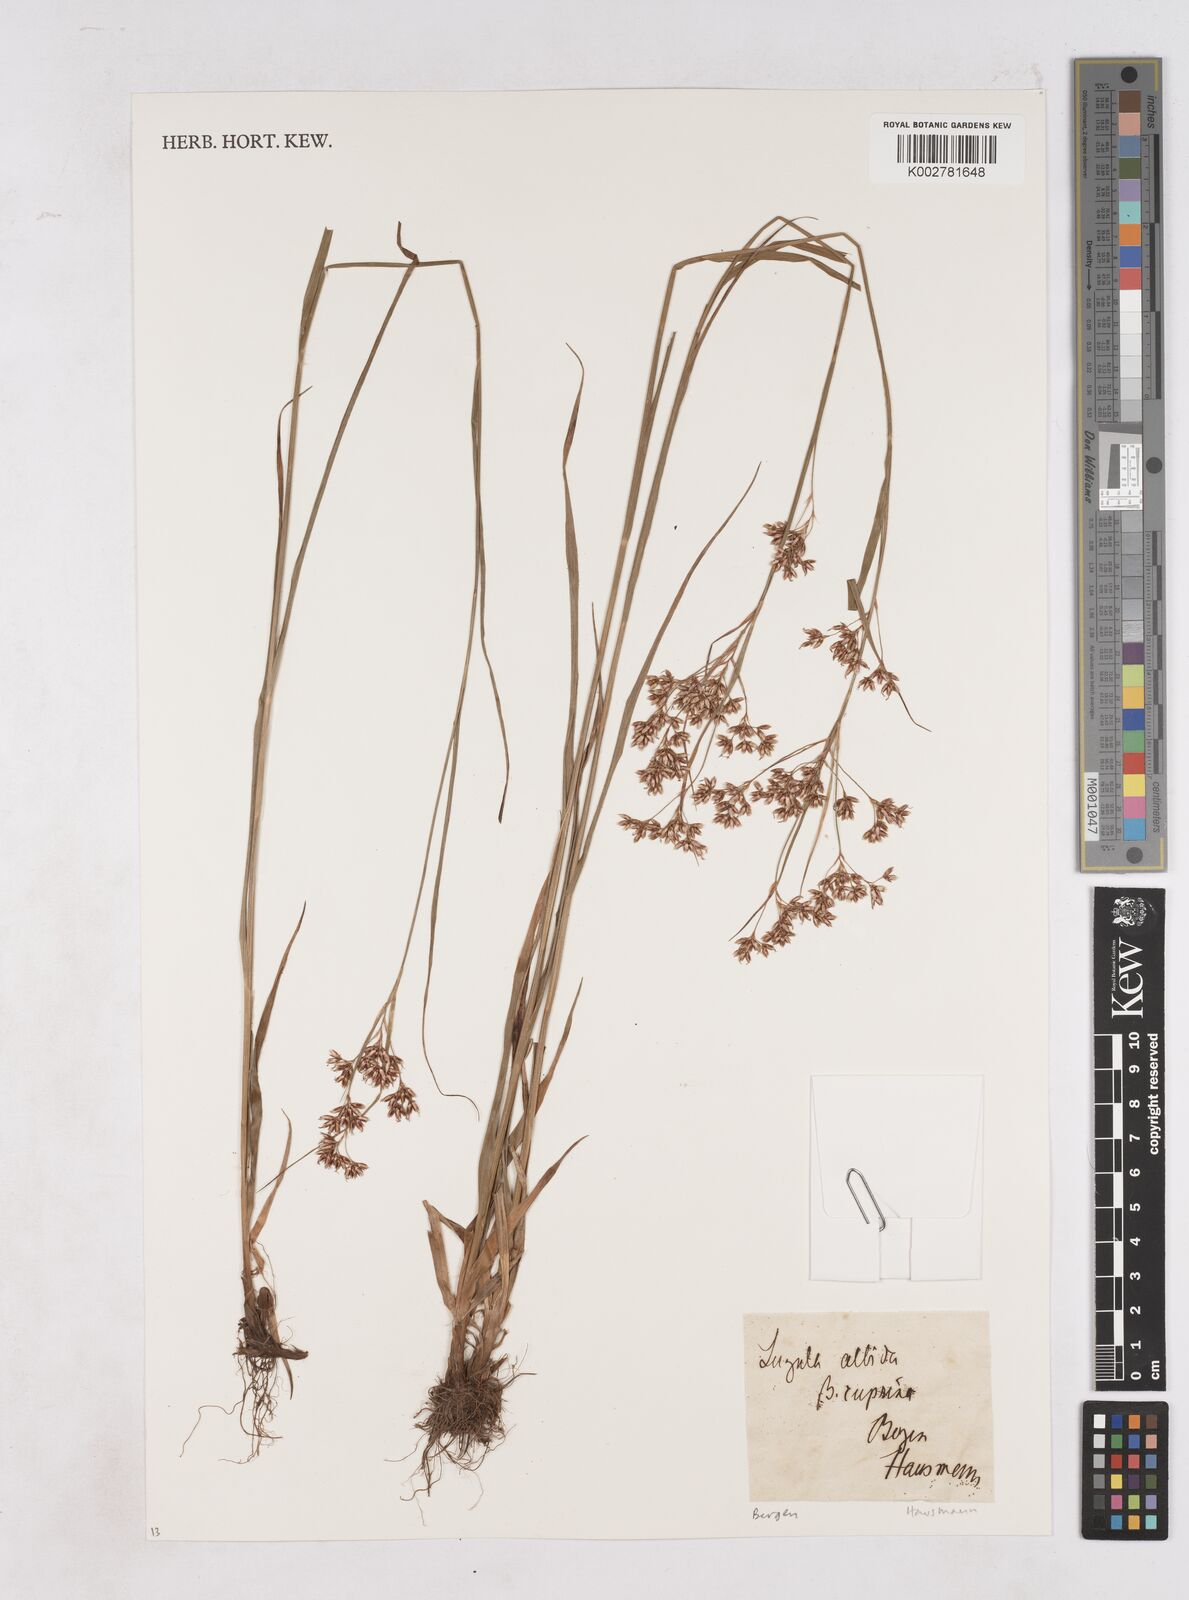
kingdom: Plantae
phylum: Tracheophyta
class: Liliopsida
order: Poales
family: Juncaceae
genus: Luzula
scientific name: Luzula luzuloides
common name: White wood-rush
